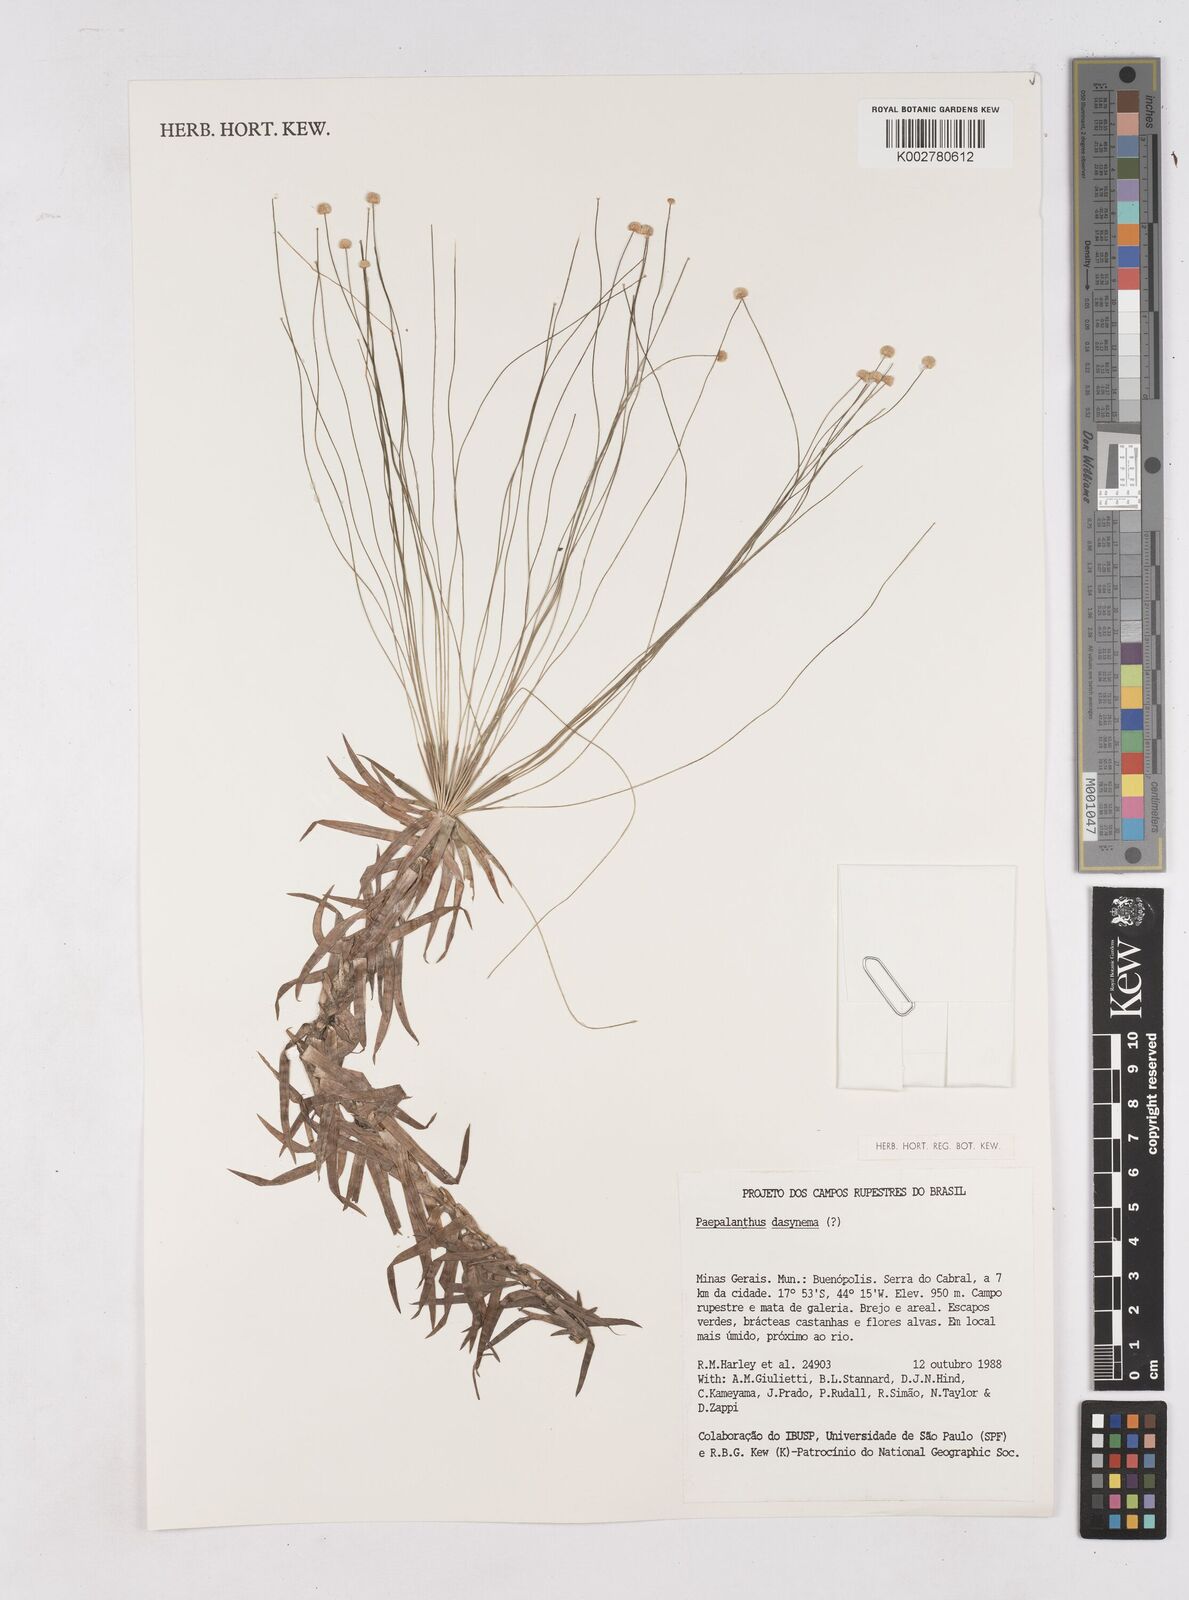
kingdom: Plantae
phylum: Tracheophyta
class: Liliopsida
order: Poales
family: Eriocaulaceae
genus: Paepalanthus
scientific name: Paepalanthus
